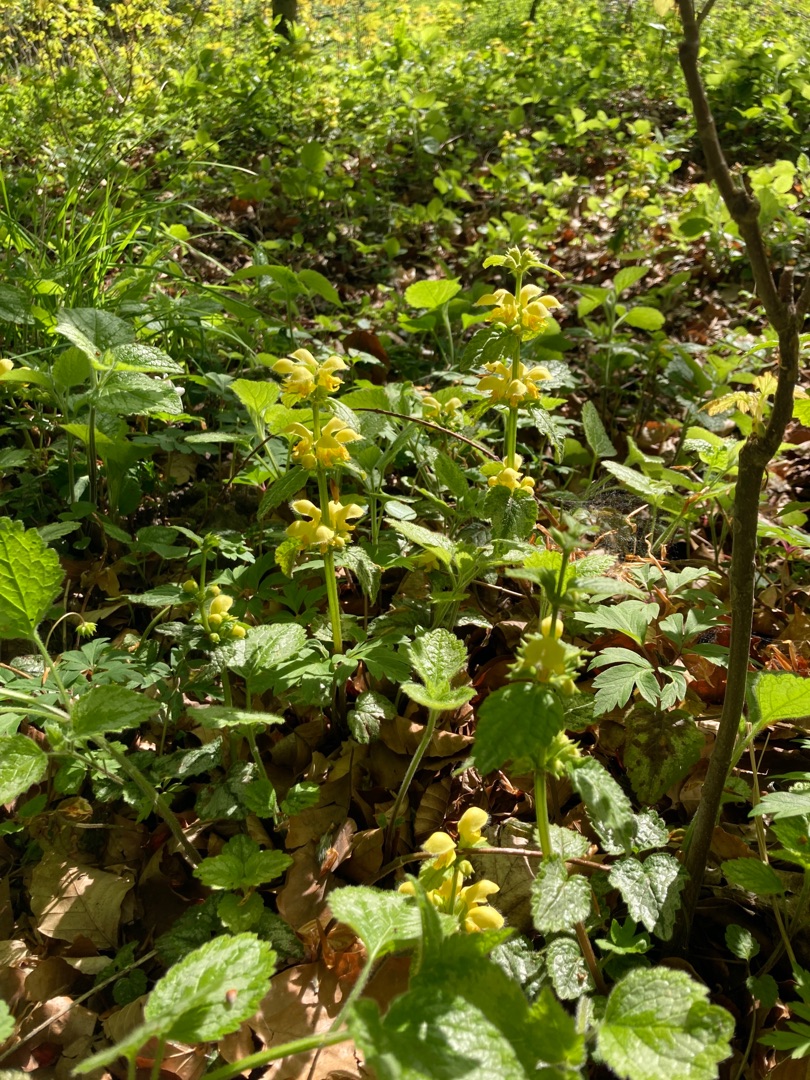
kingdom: Plantae
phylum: Tracheophyta
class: Magnoliopsida
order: Lamiales
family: Lamiaceae
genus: Lamium
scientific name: Lamium galeobdolon
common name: Have-guldnælde
